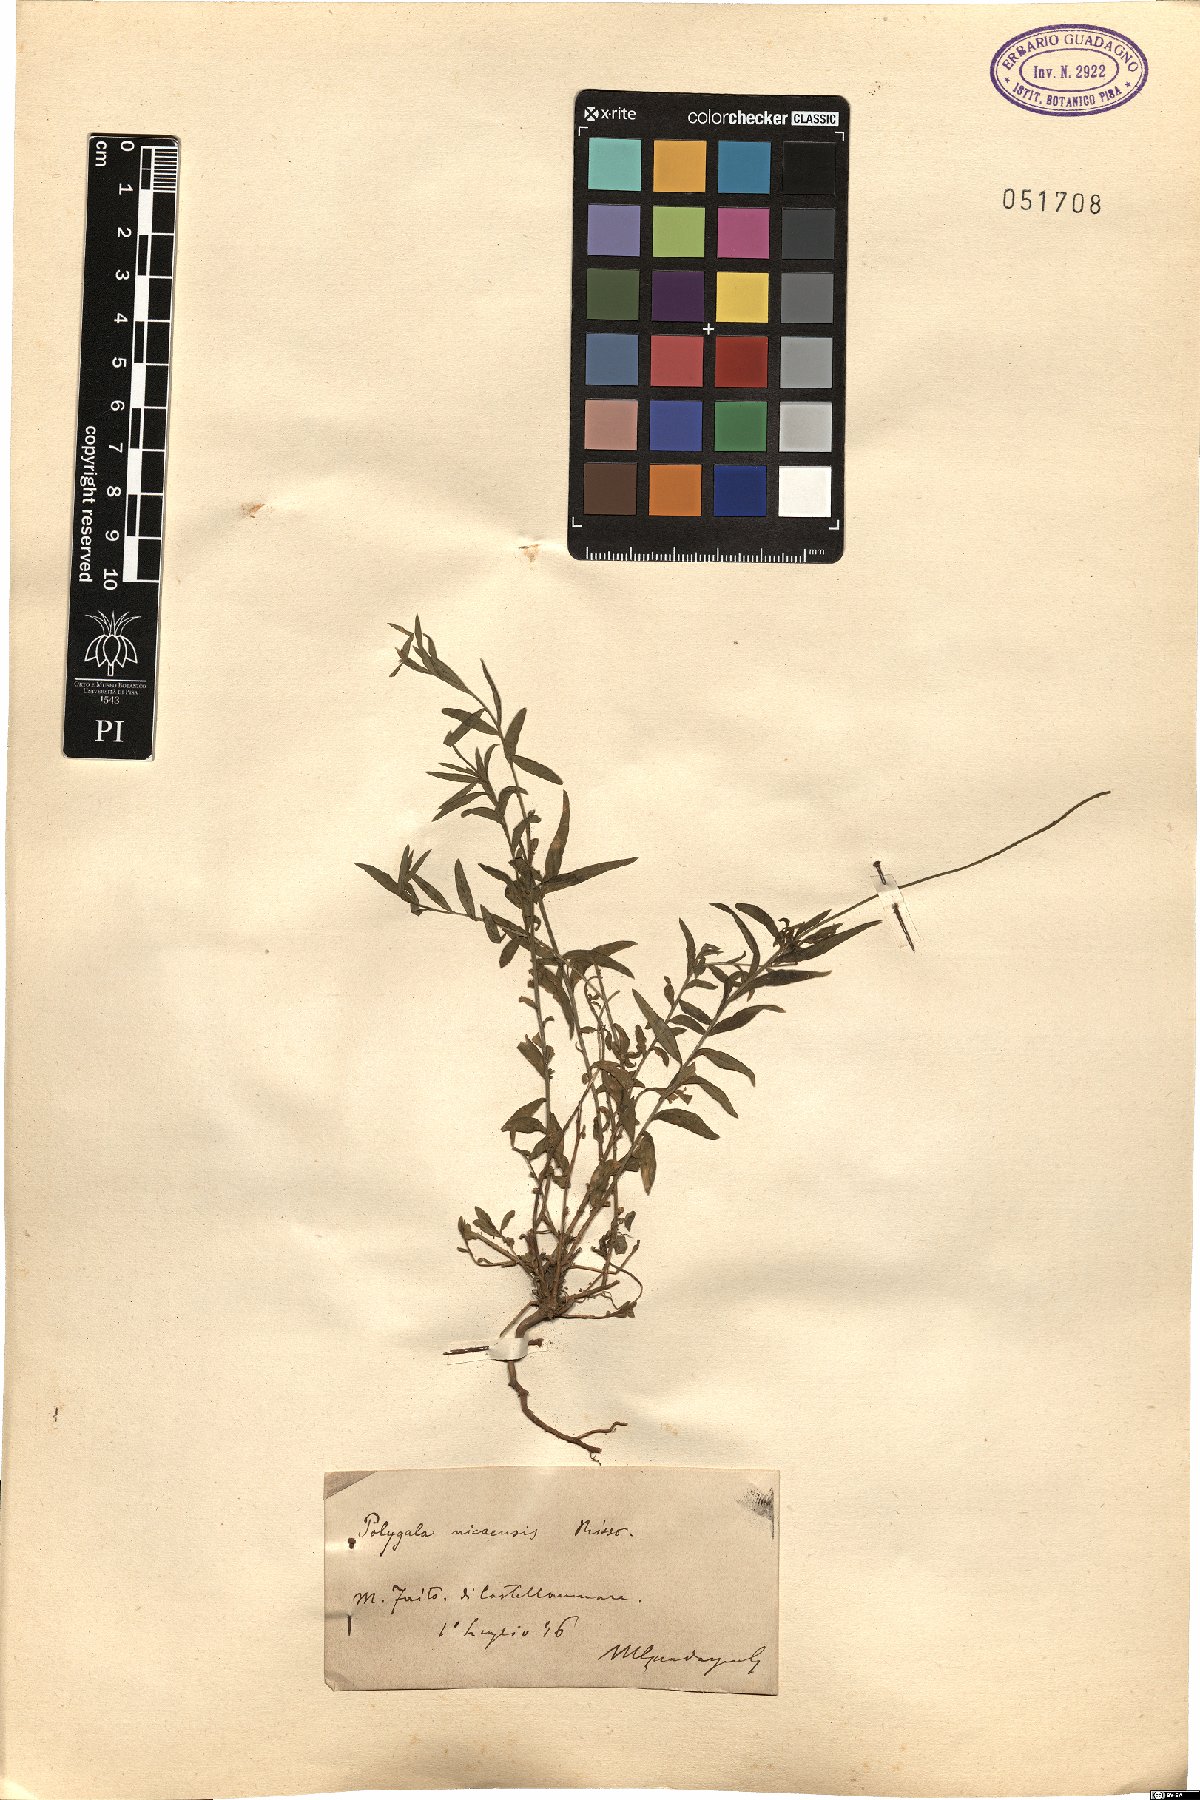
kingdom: Plantae
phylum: Tracheophyta
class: Magnoliopsida
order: Fabales
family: Polygalaceae
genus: Polygala
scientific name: Polygala nicaeensis
